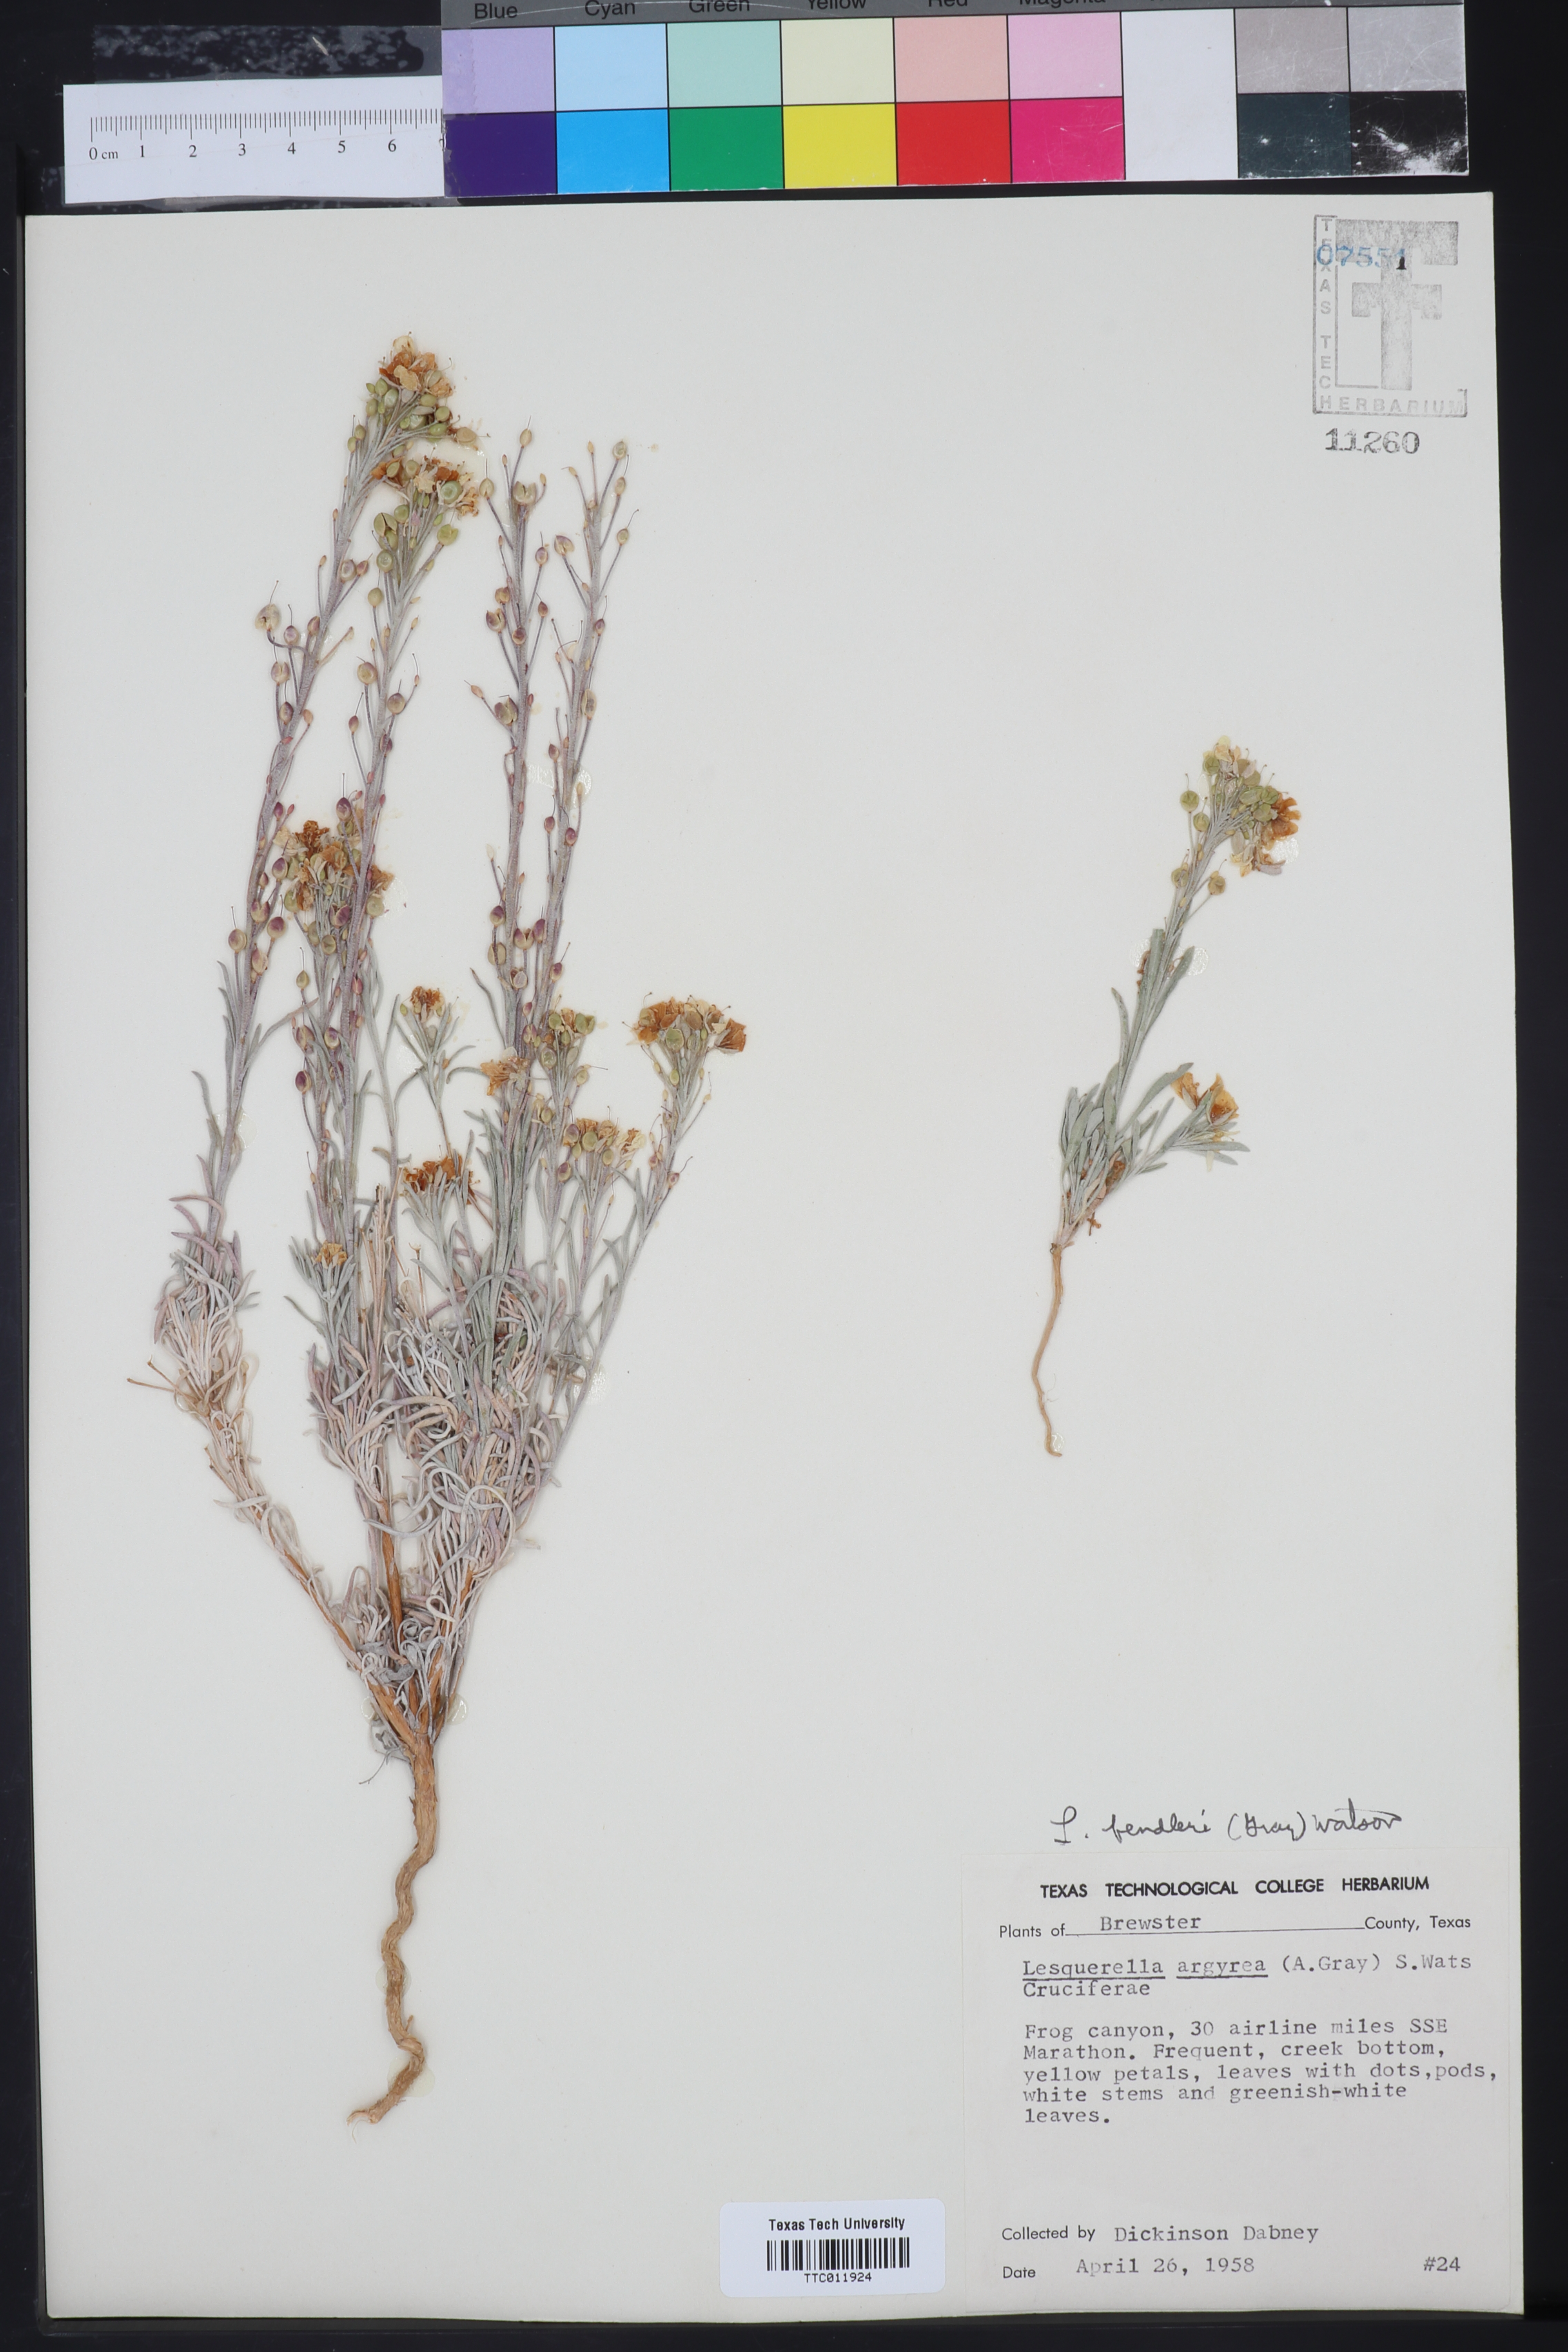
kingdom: Plantae
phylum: Tracheophyta
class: Magnoliopsida
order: Brassicales
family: Brassicaceae
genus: Physaria
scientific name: Physaria fendleri
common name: Fendler's bladderpod
